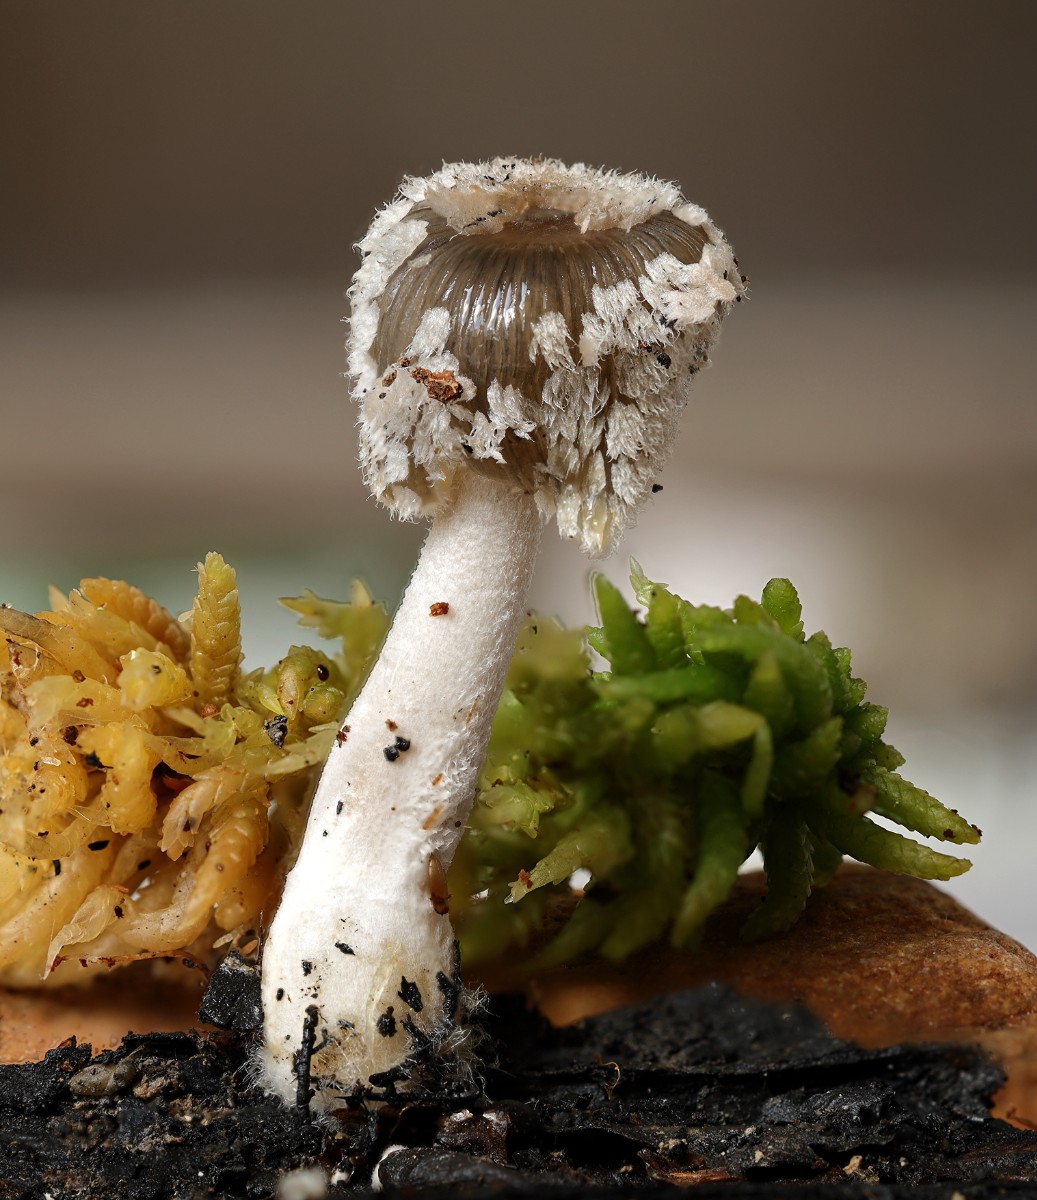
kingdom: Fungi
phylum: Basidiomycota
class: Agaricomycetes
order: Agaricales
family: Psathyrellaceae
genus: Coprinopsis
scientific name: Coprinopsis jonesii
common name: spættet blækhat
